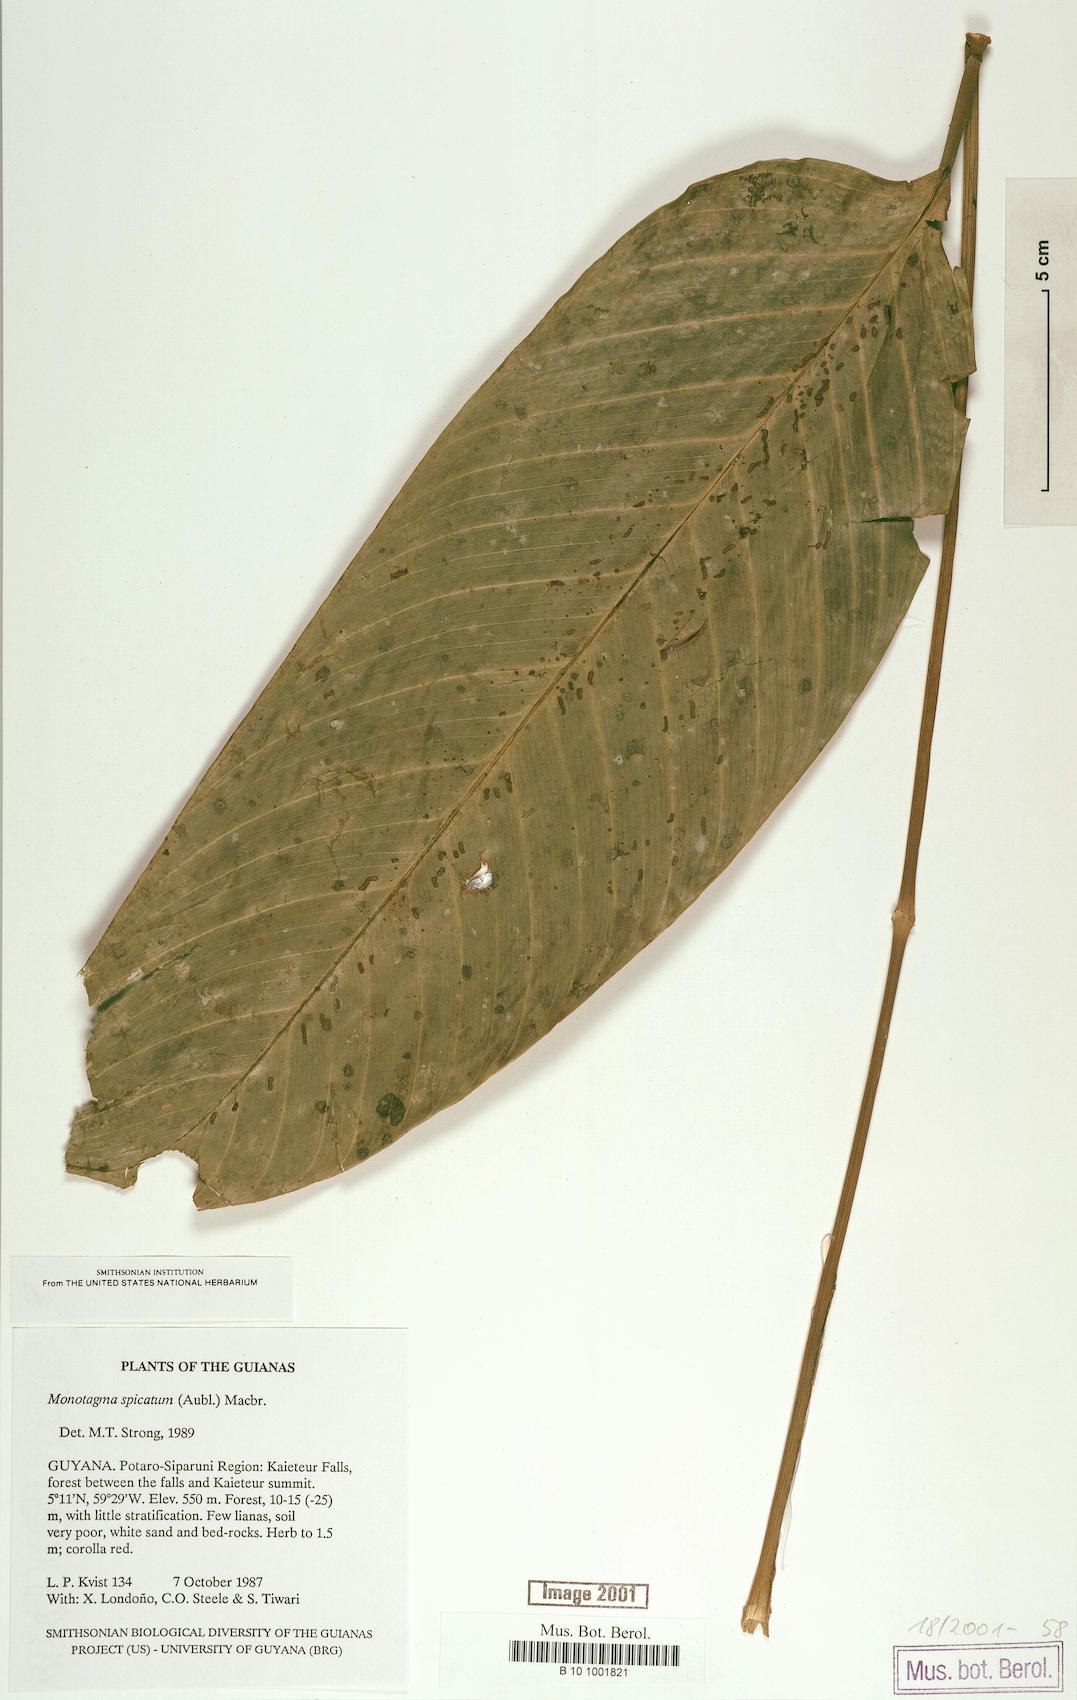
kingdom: Plantae
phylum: Tracheophyta
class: Liliopsida
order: Zingiberales
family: Marantaceae
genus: Monotagma
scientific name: Monotagma spicatum
